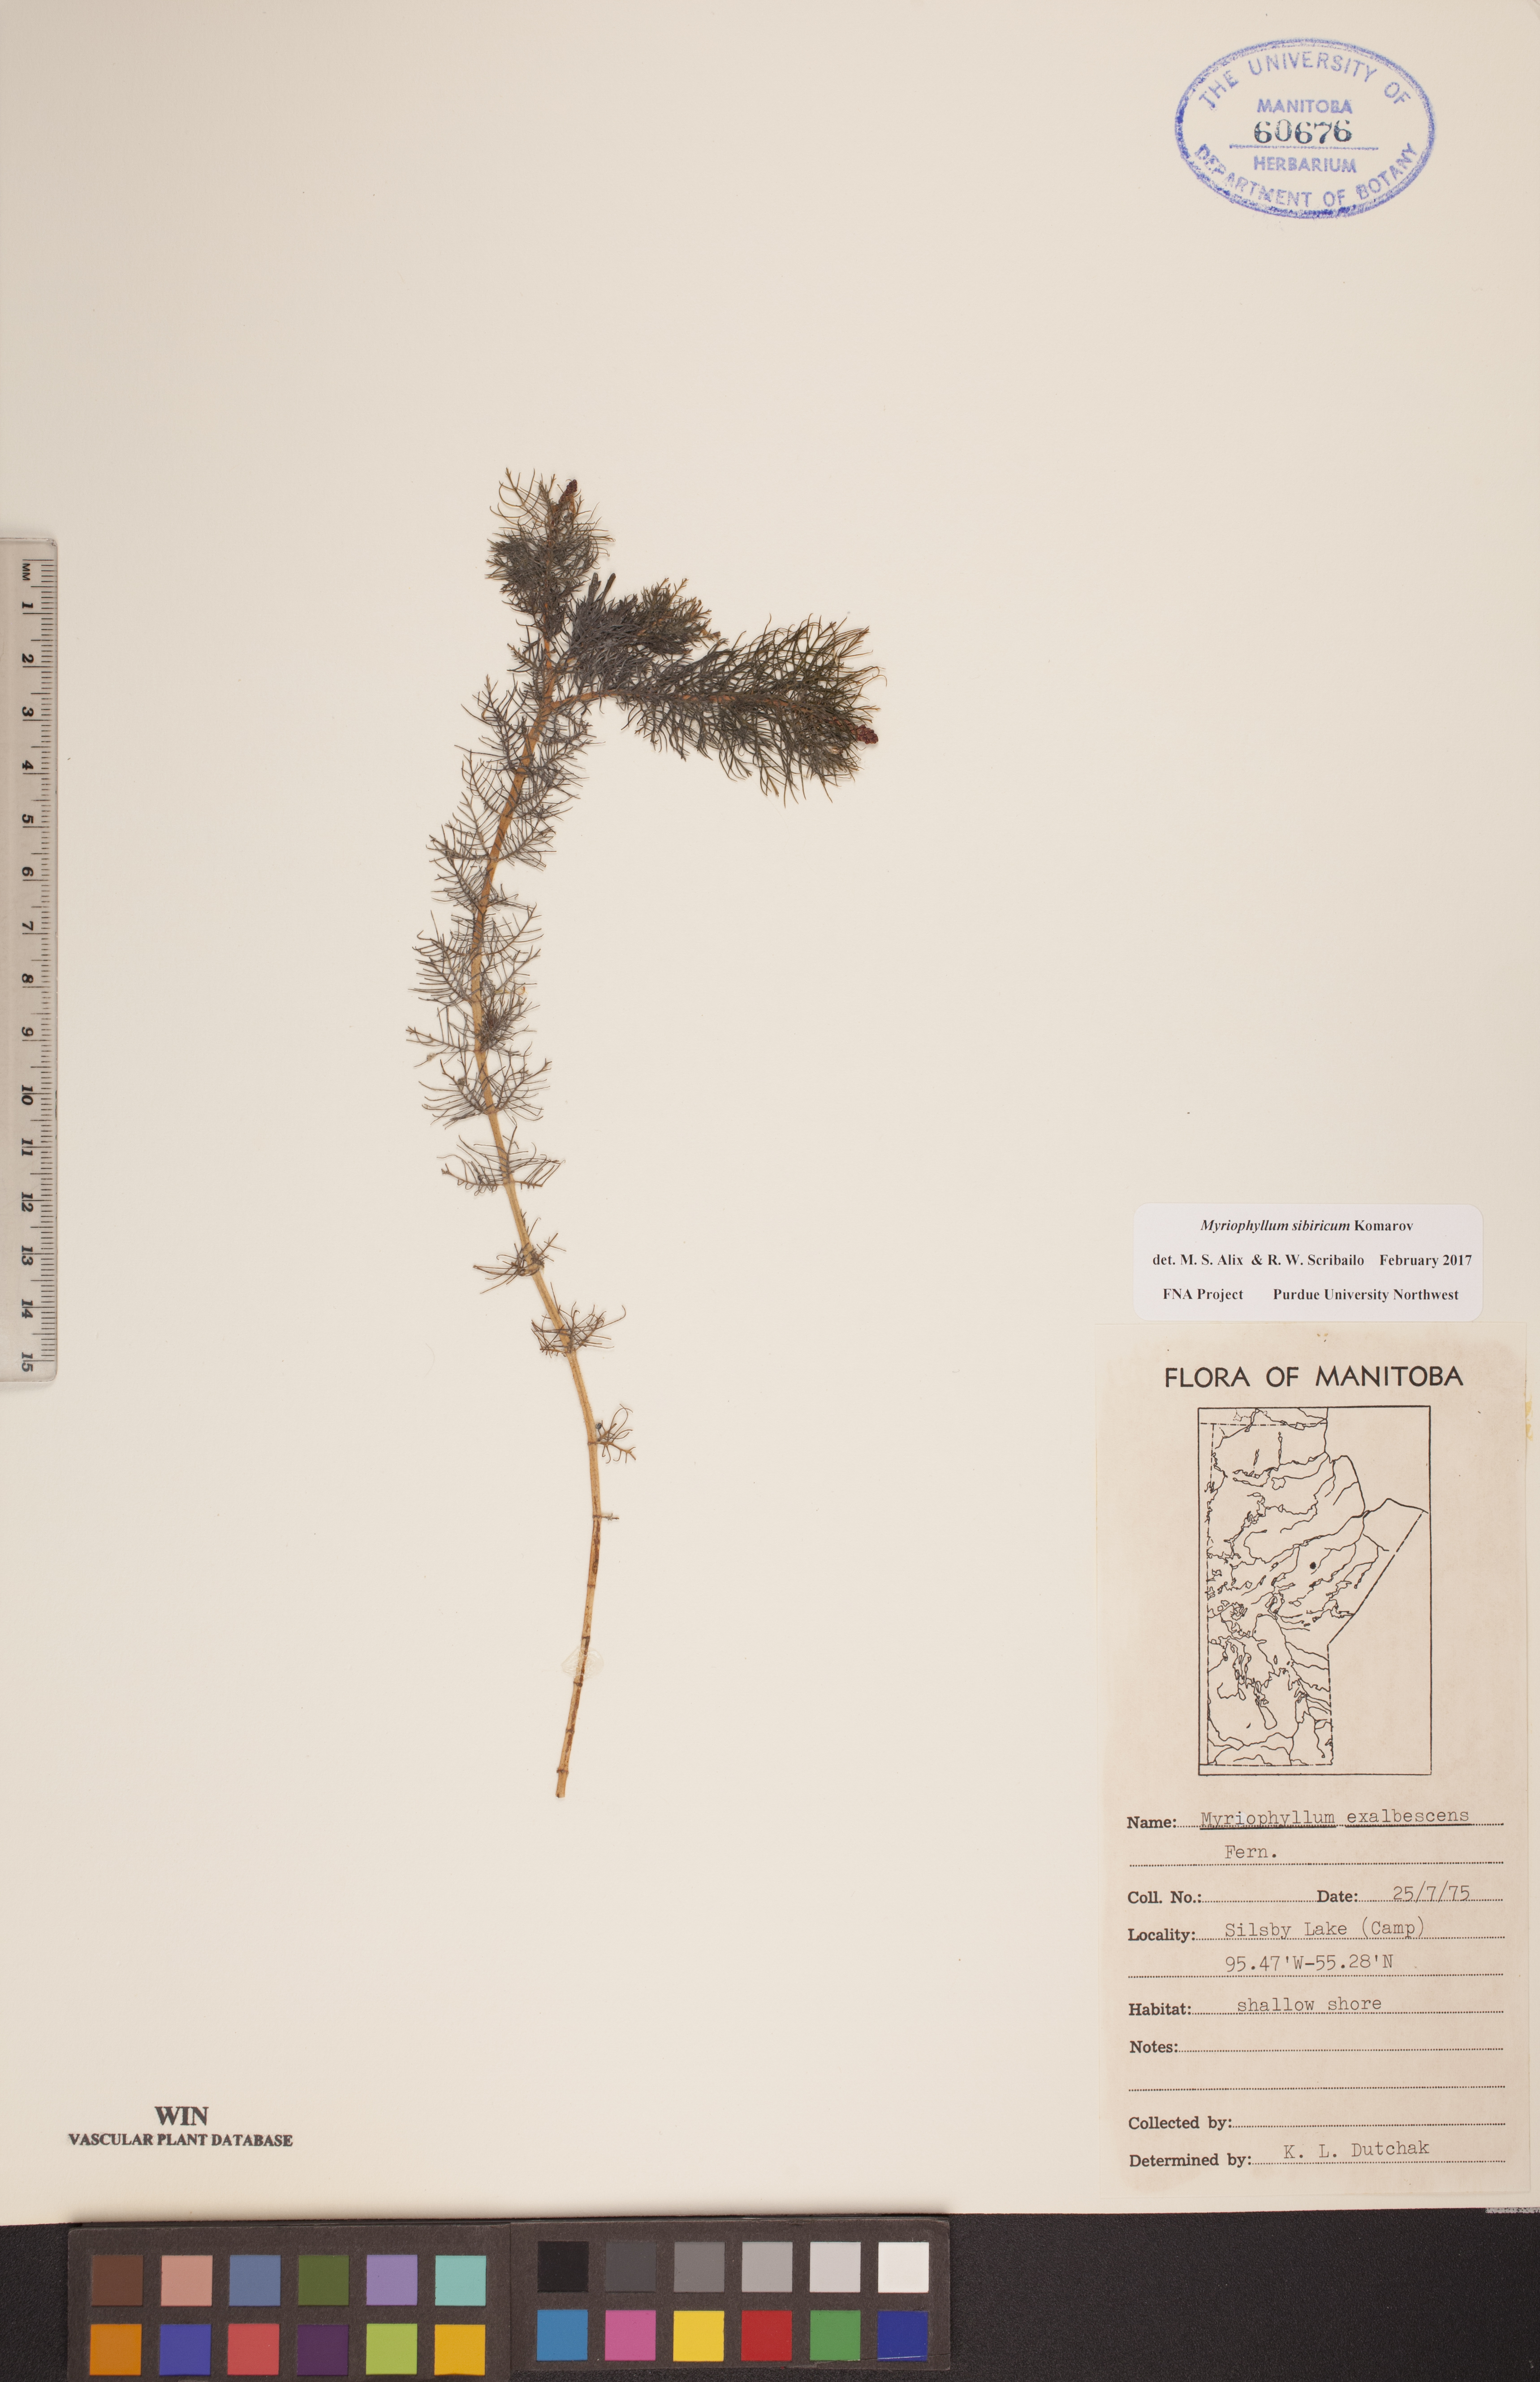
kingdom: Plantae
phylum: Tracheophyta
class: Magnoliopsida
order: Saxifragales
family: Haloragaceae
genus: Myriophyllum
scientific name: Myriophyllum sibiricum
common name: Siberian water-milfoil
